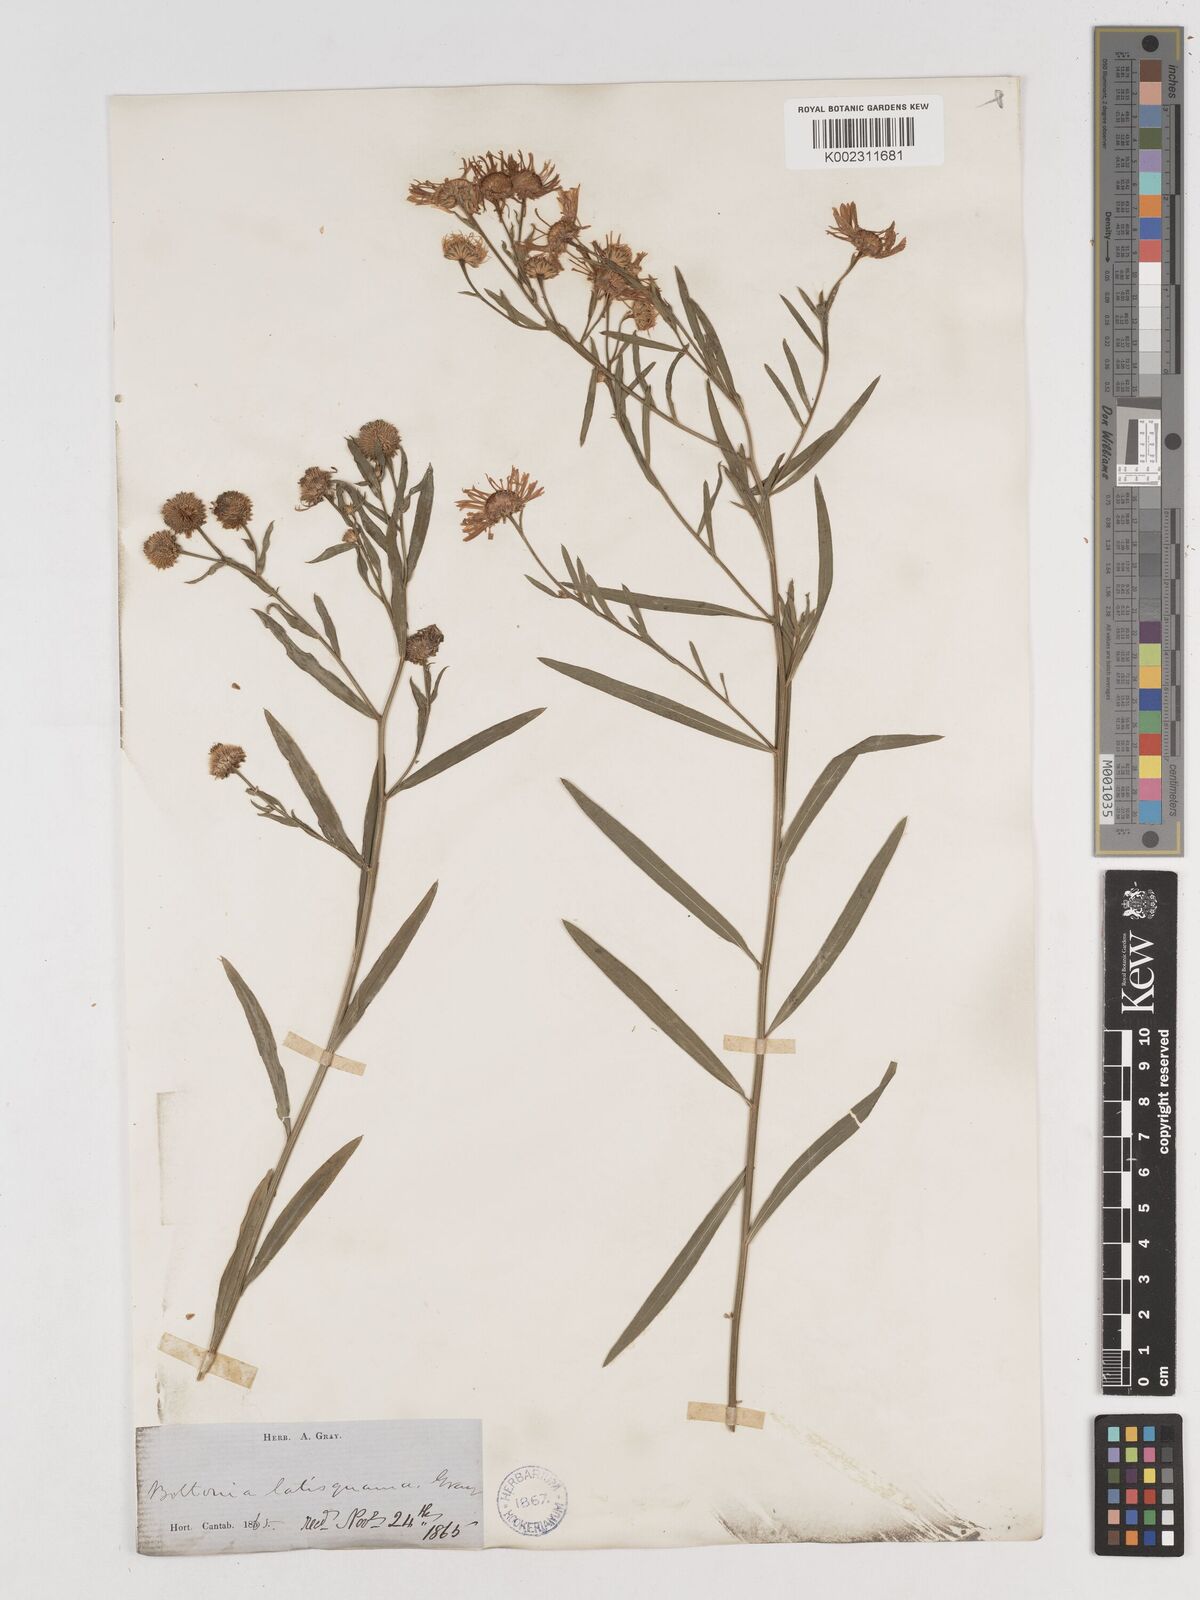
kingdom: Plantae
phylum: Tracheophyta
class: Magnoliopsida
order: Asterales
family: Asteraceae
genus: Boltonia
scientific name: Boltonia asteroides
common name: False chamomile
